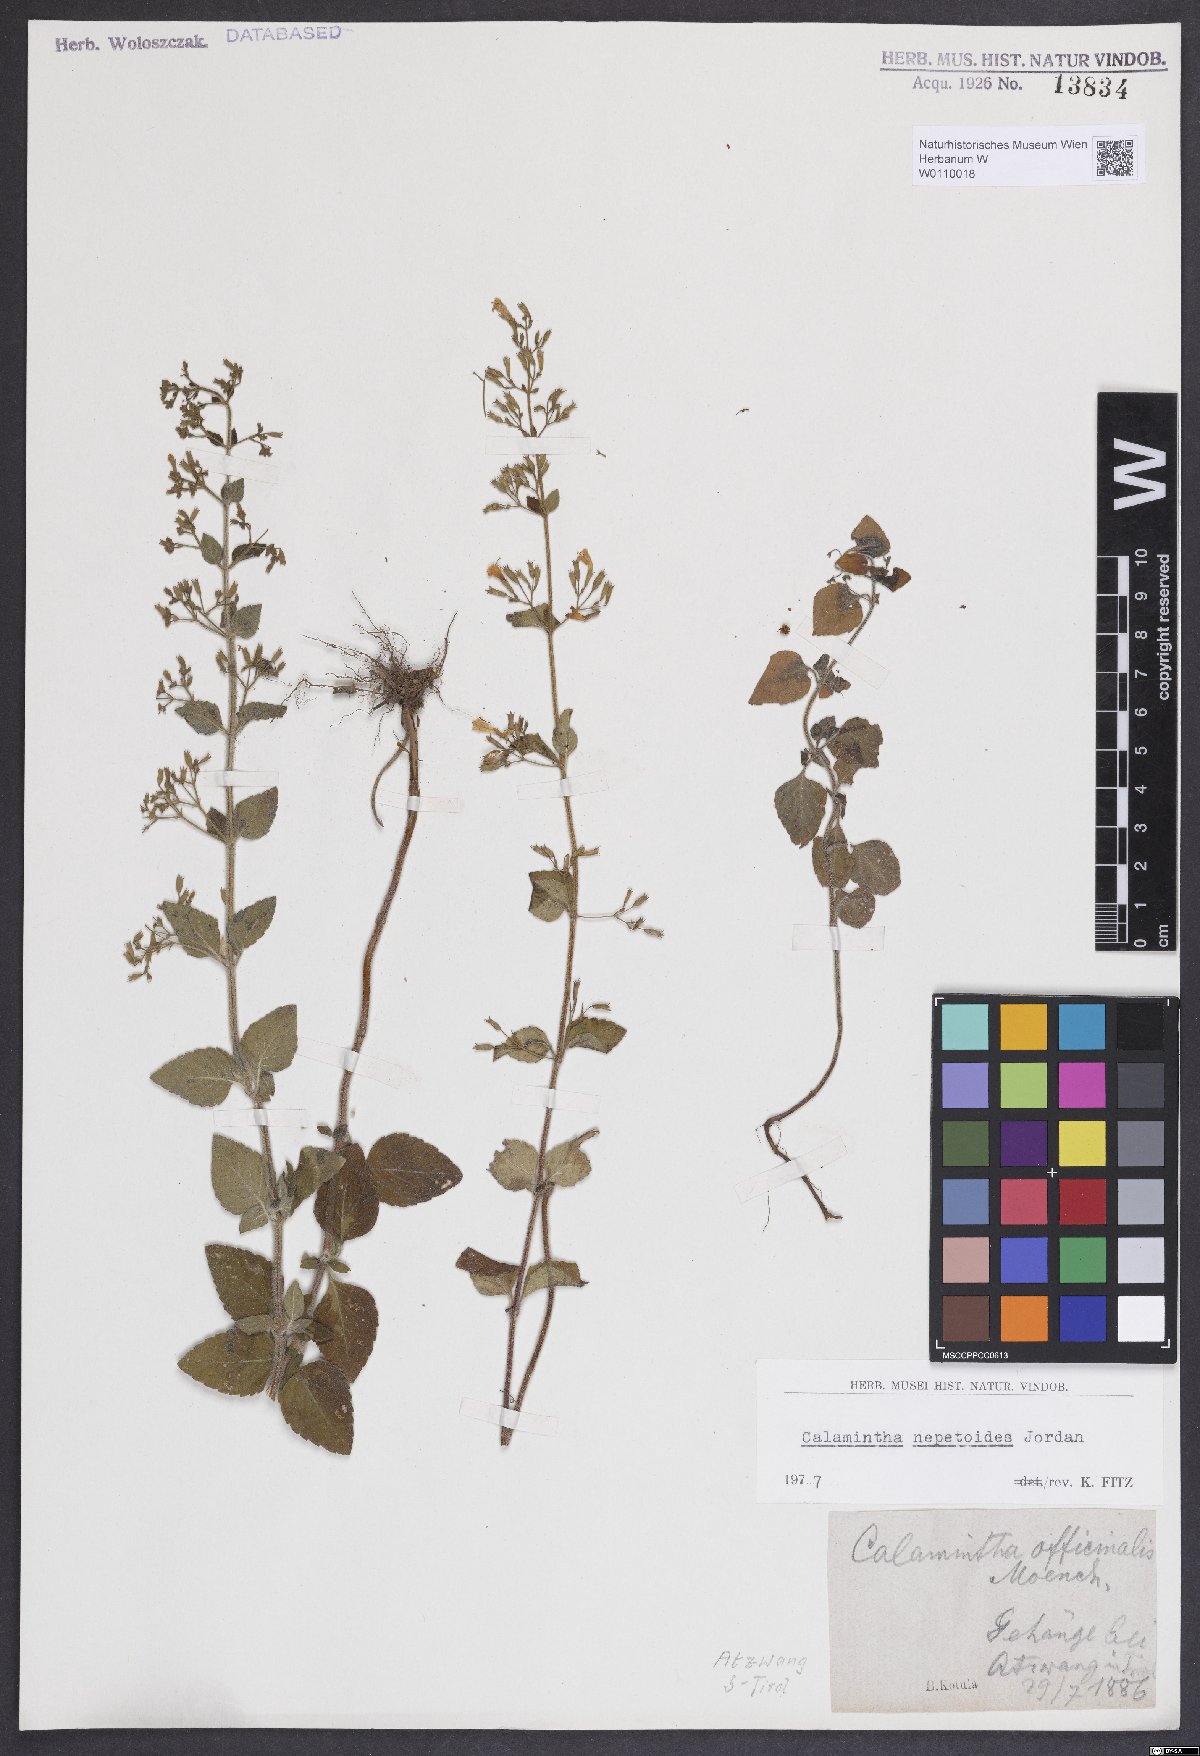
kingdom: Plantae
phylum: Tracheophyta
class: Magnoliopsida
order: Lamiales
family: Lamiaceae
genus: Clinopodium
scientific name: Clinopodium nepeta
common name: Lesser calamint
